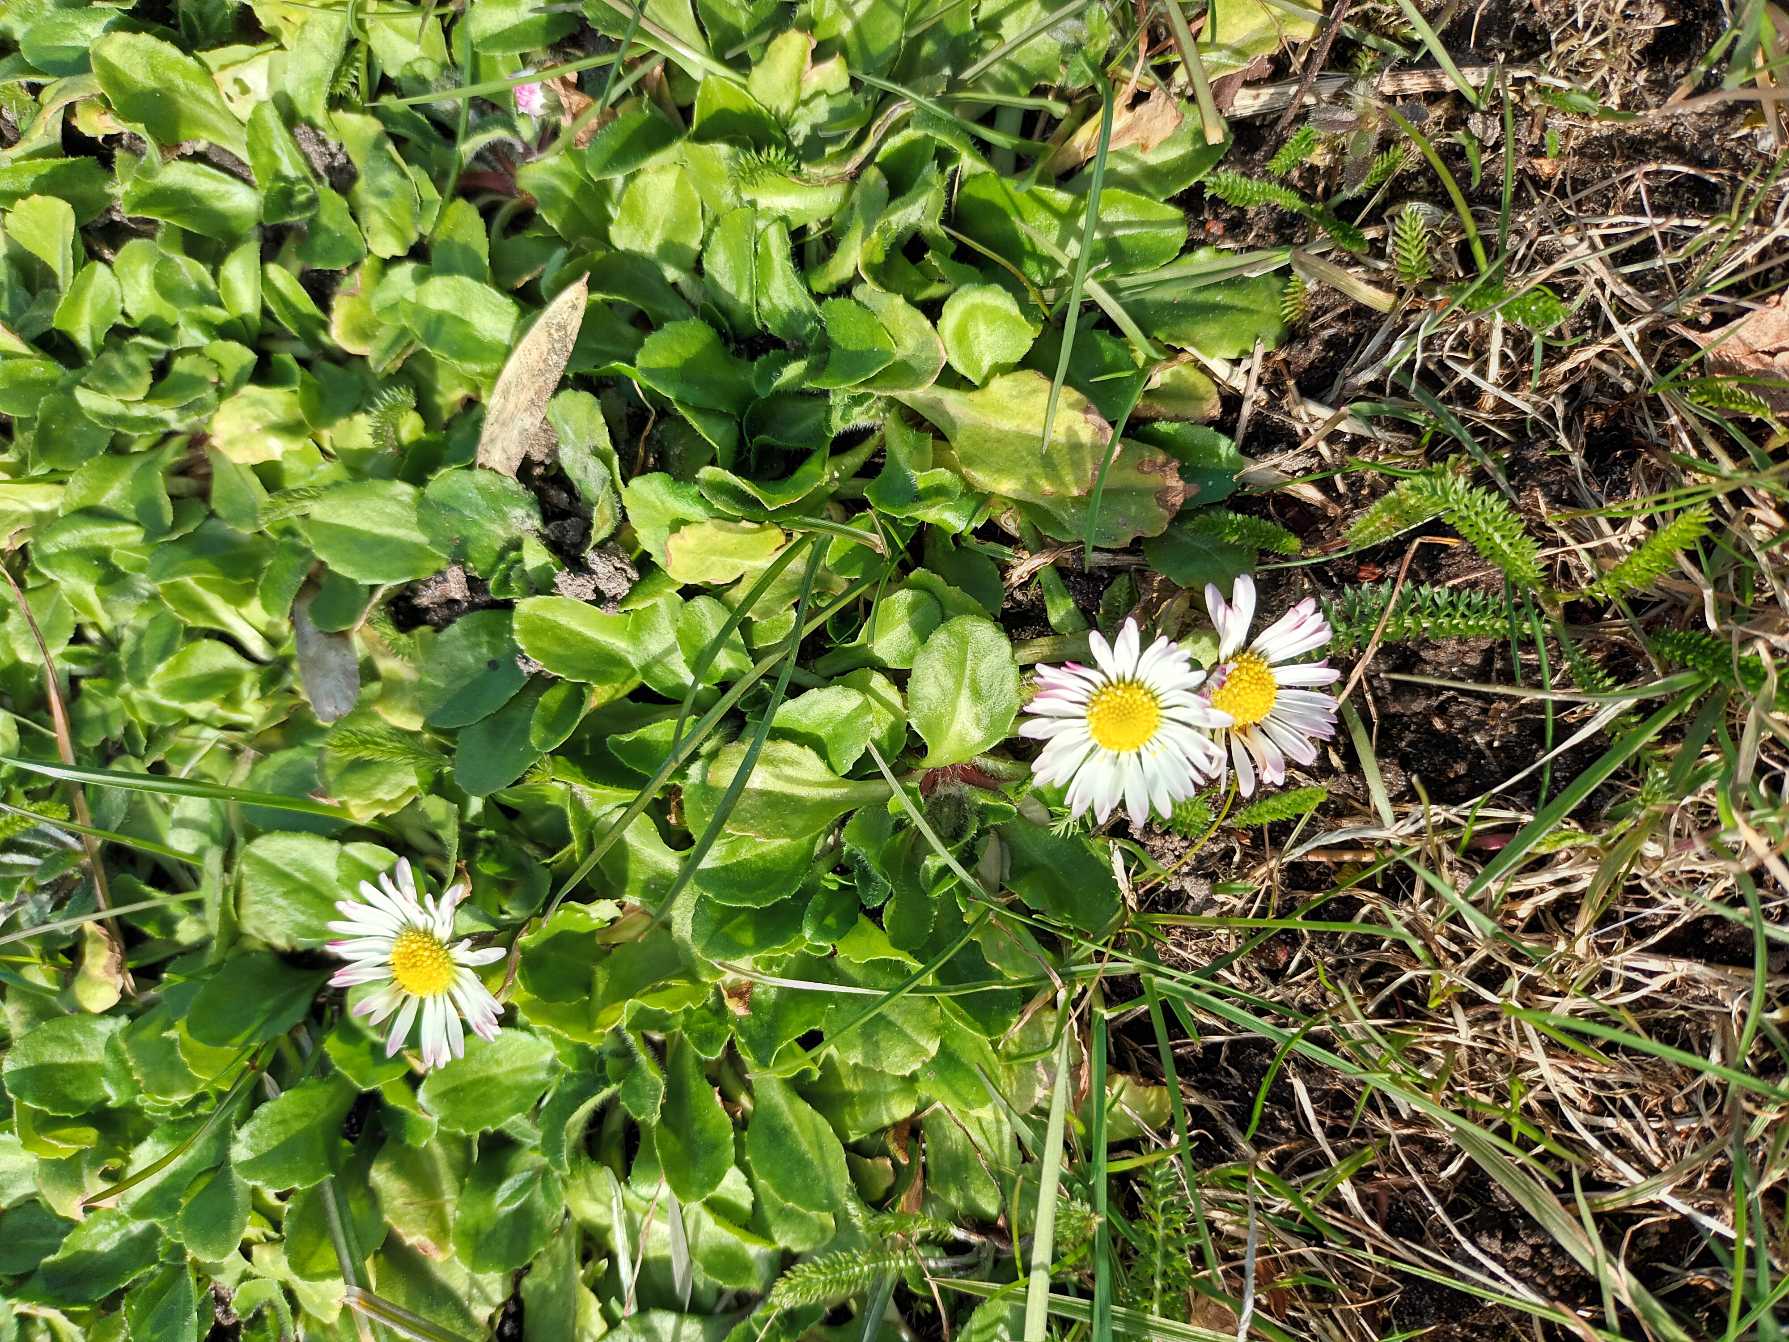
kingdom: Plantae
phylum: Tracheophyta
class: Magnoliopsida
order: Asterales
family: Asteraceae
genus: Bellis
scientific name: Bellis perennis
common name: Tusindfryd
